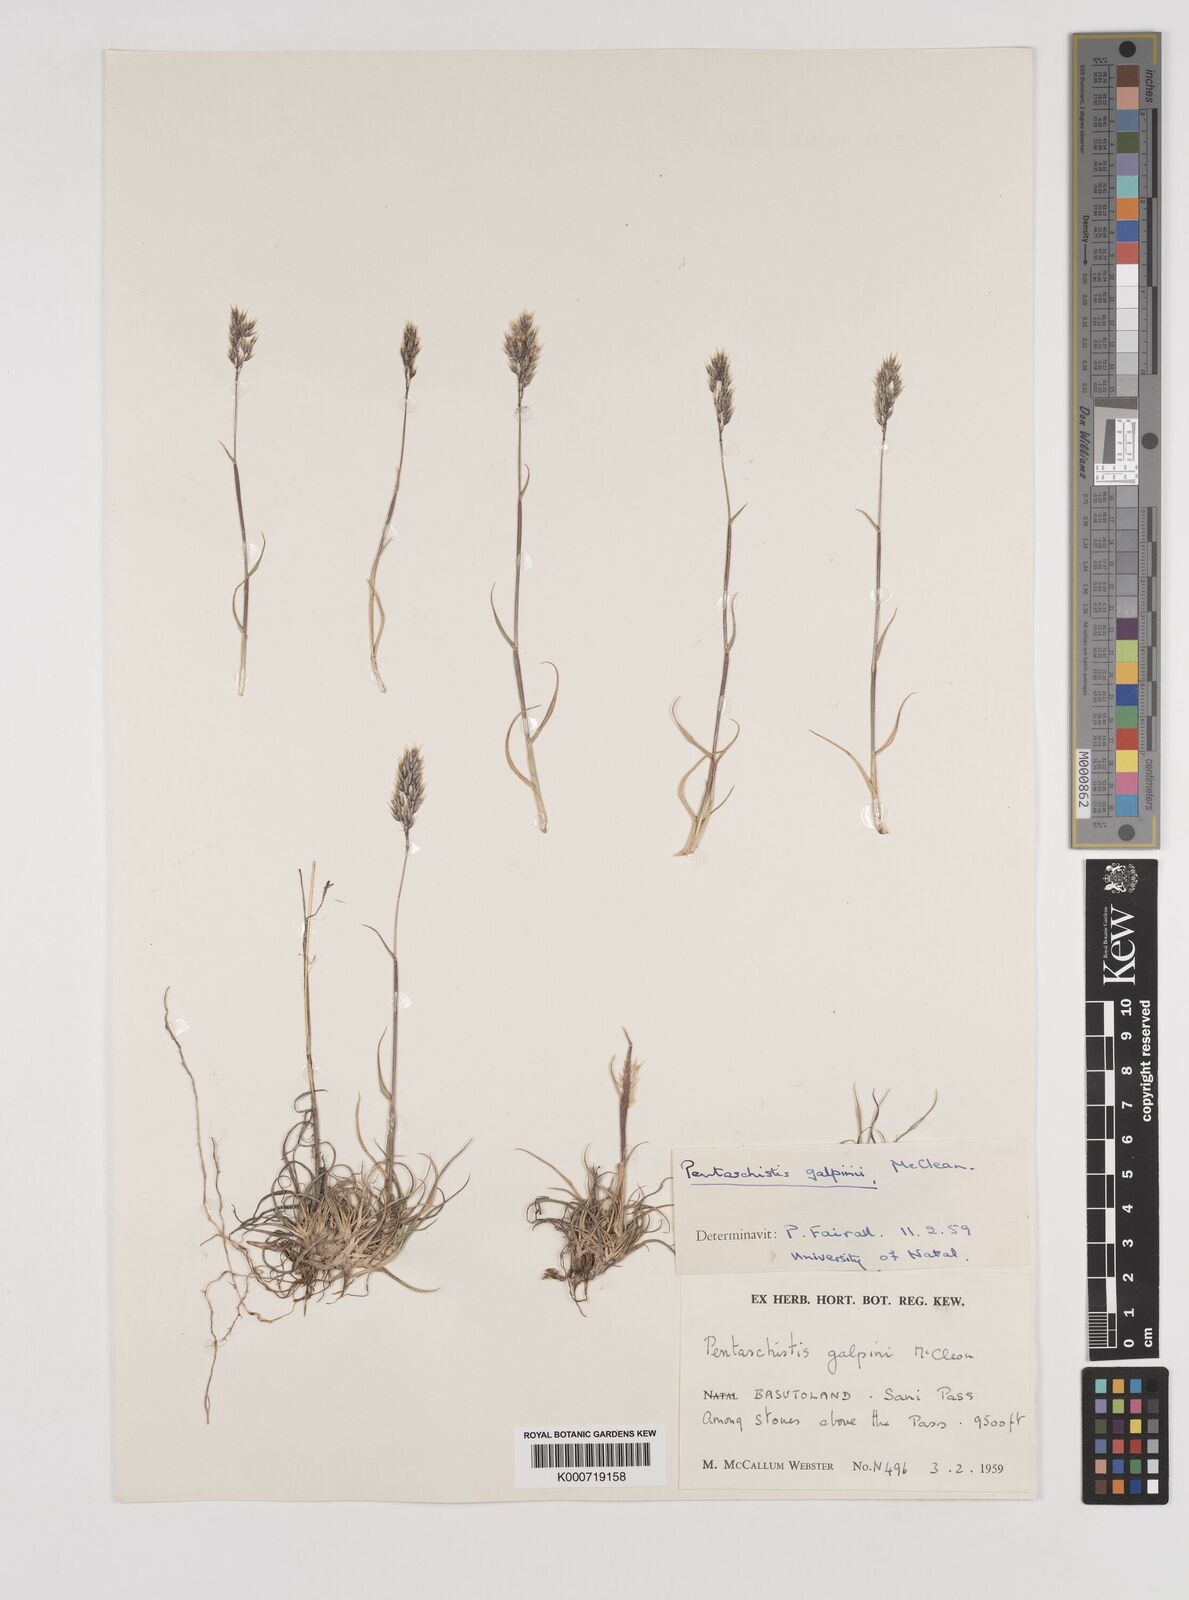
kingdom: Plantae
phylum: Tracheophyta
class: Liliopsida
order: Poales
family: Poaceae
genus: Pentameris
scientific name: Pentameris galpinii
